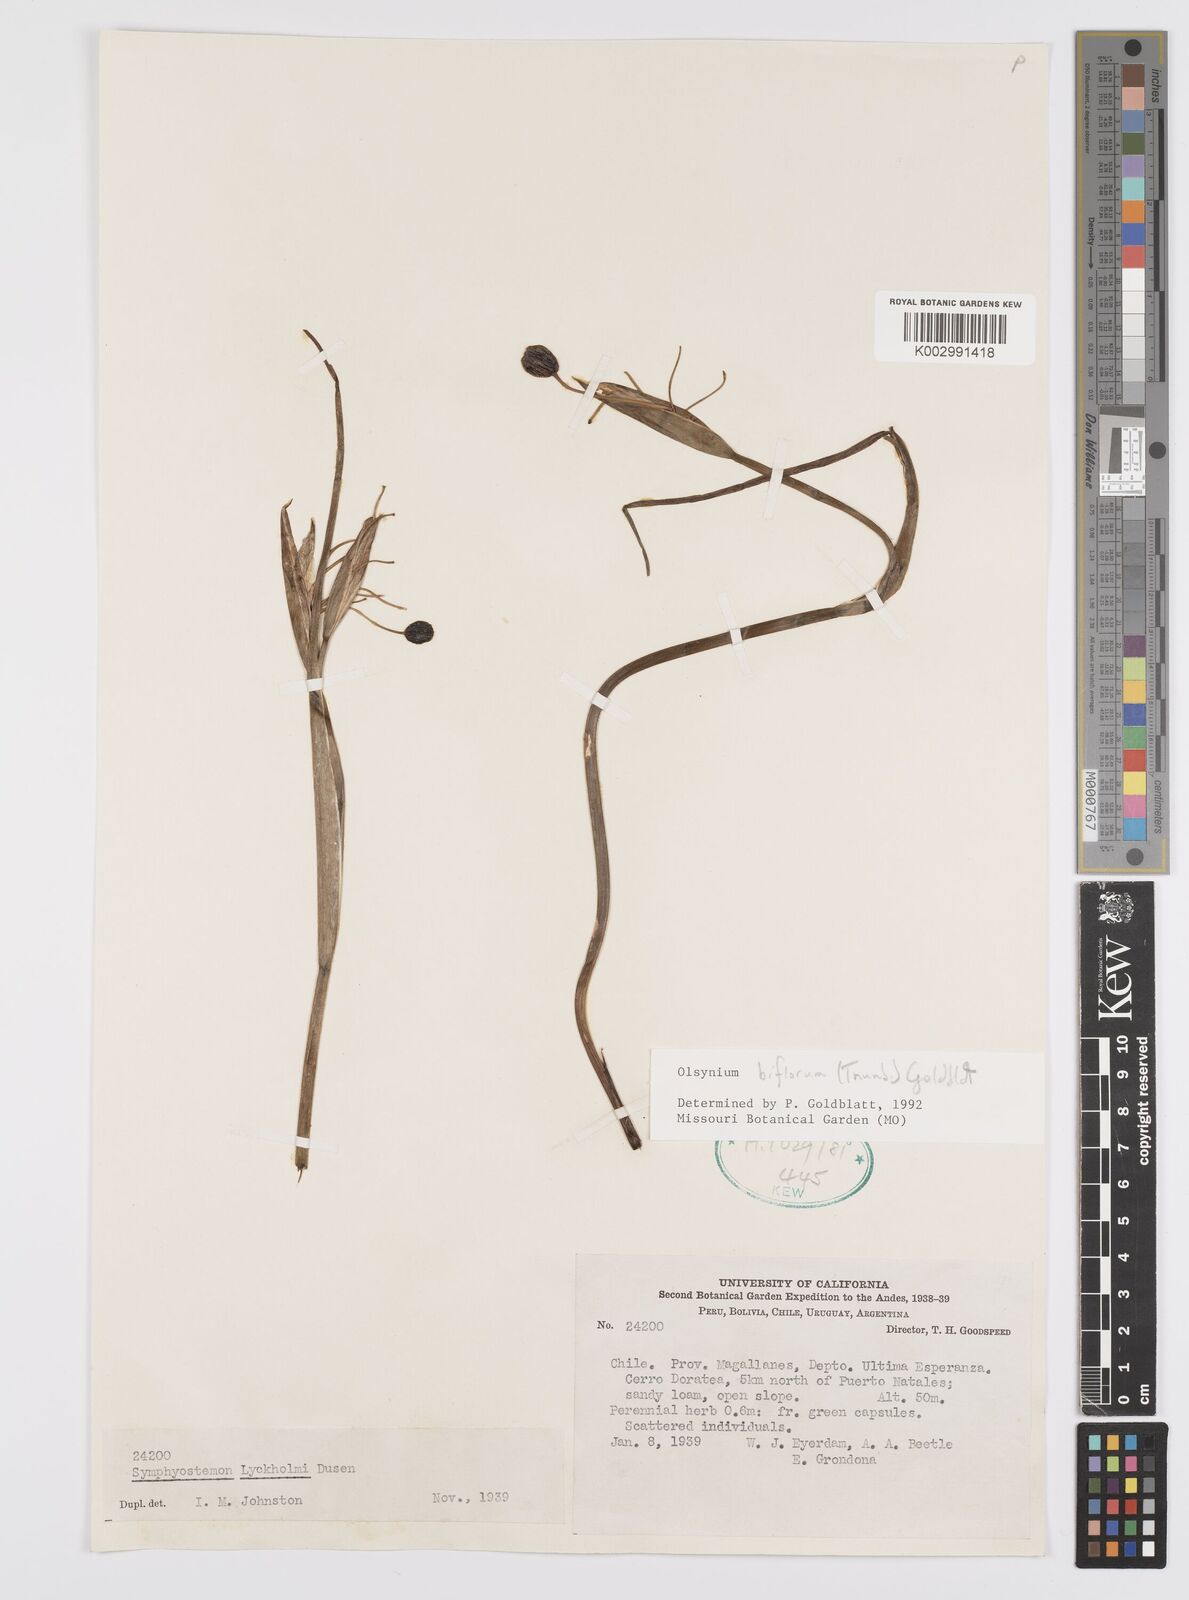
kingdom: Plantae
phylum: Tracheophyta
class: Liliopsida
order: Asparagales
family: Iridaceae
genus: Olsynium
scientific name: Olsynium biflorum
